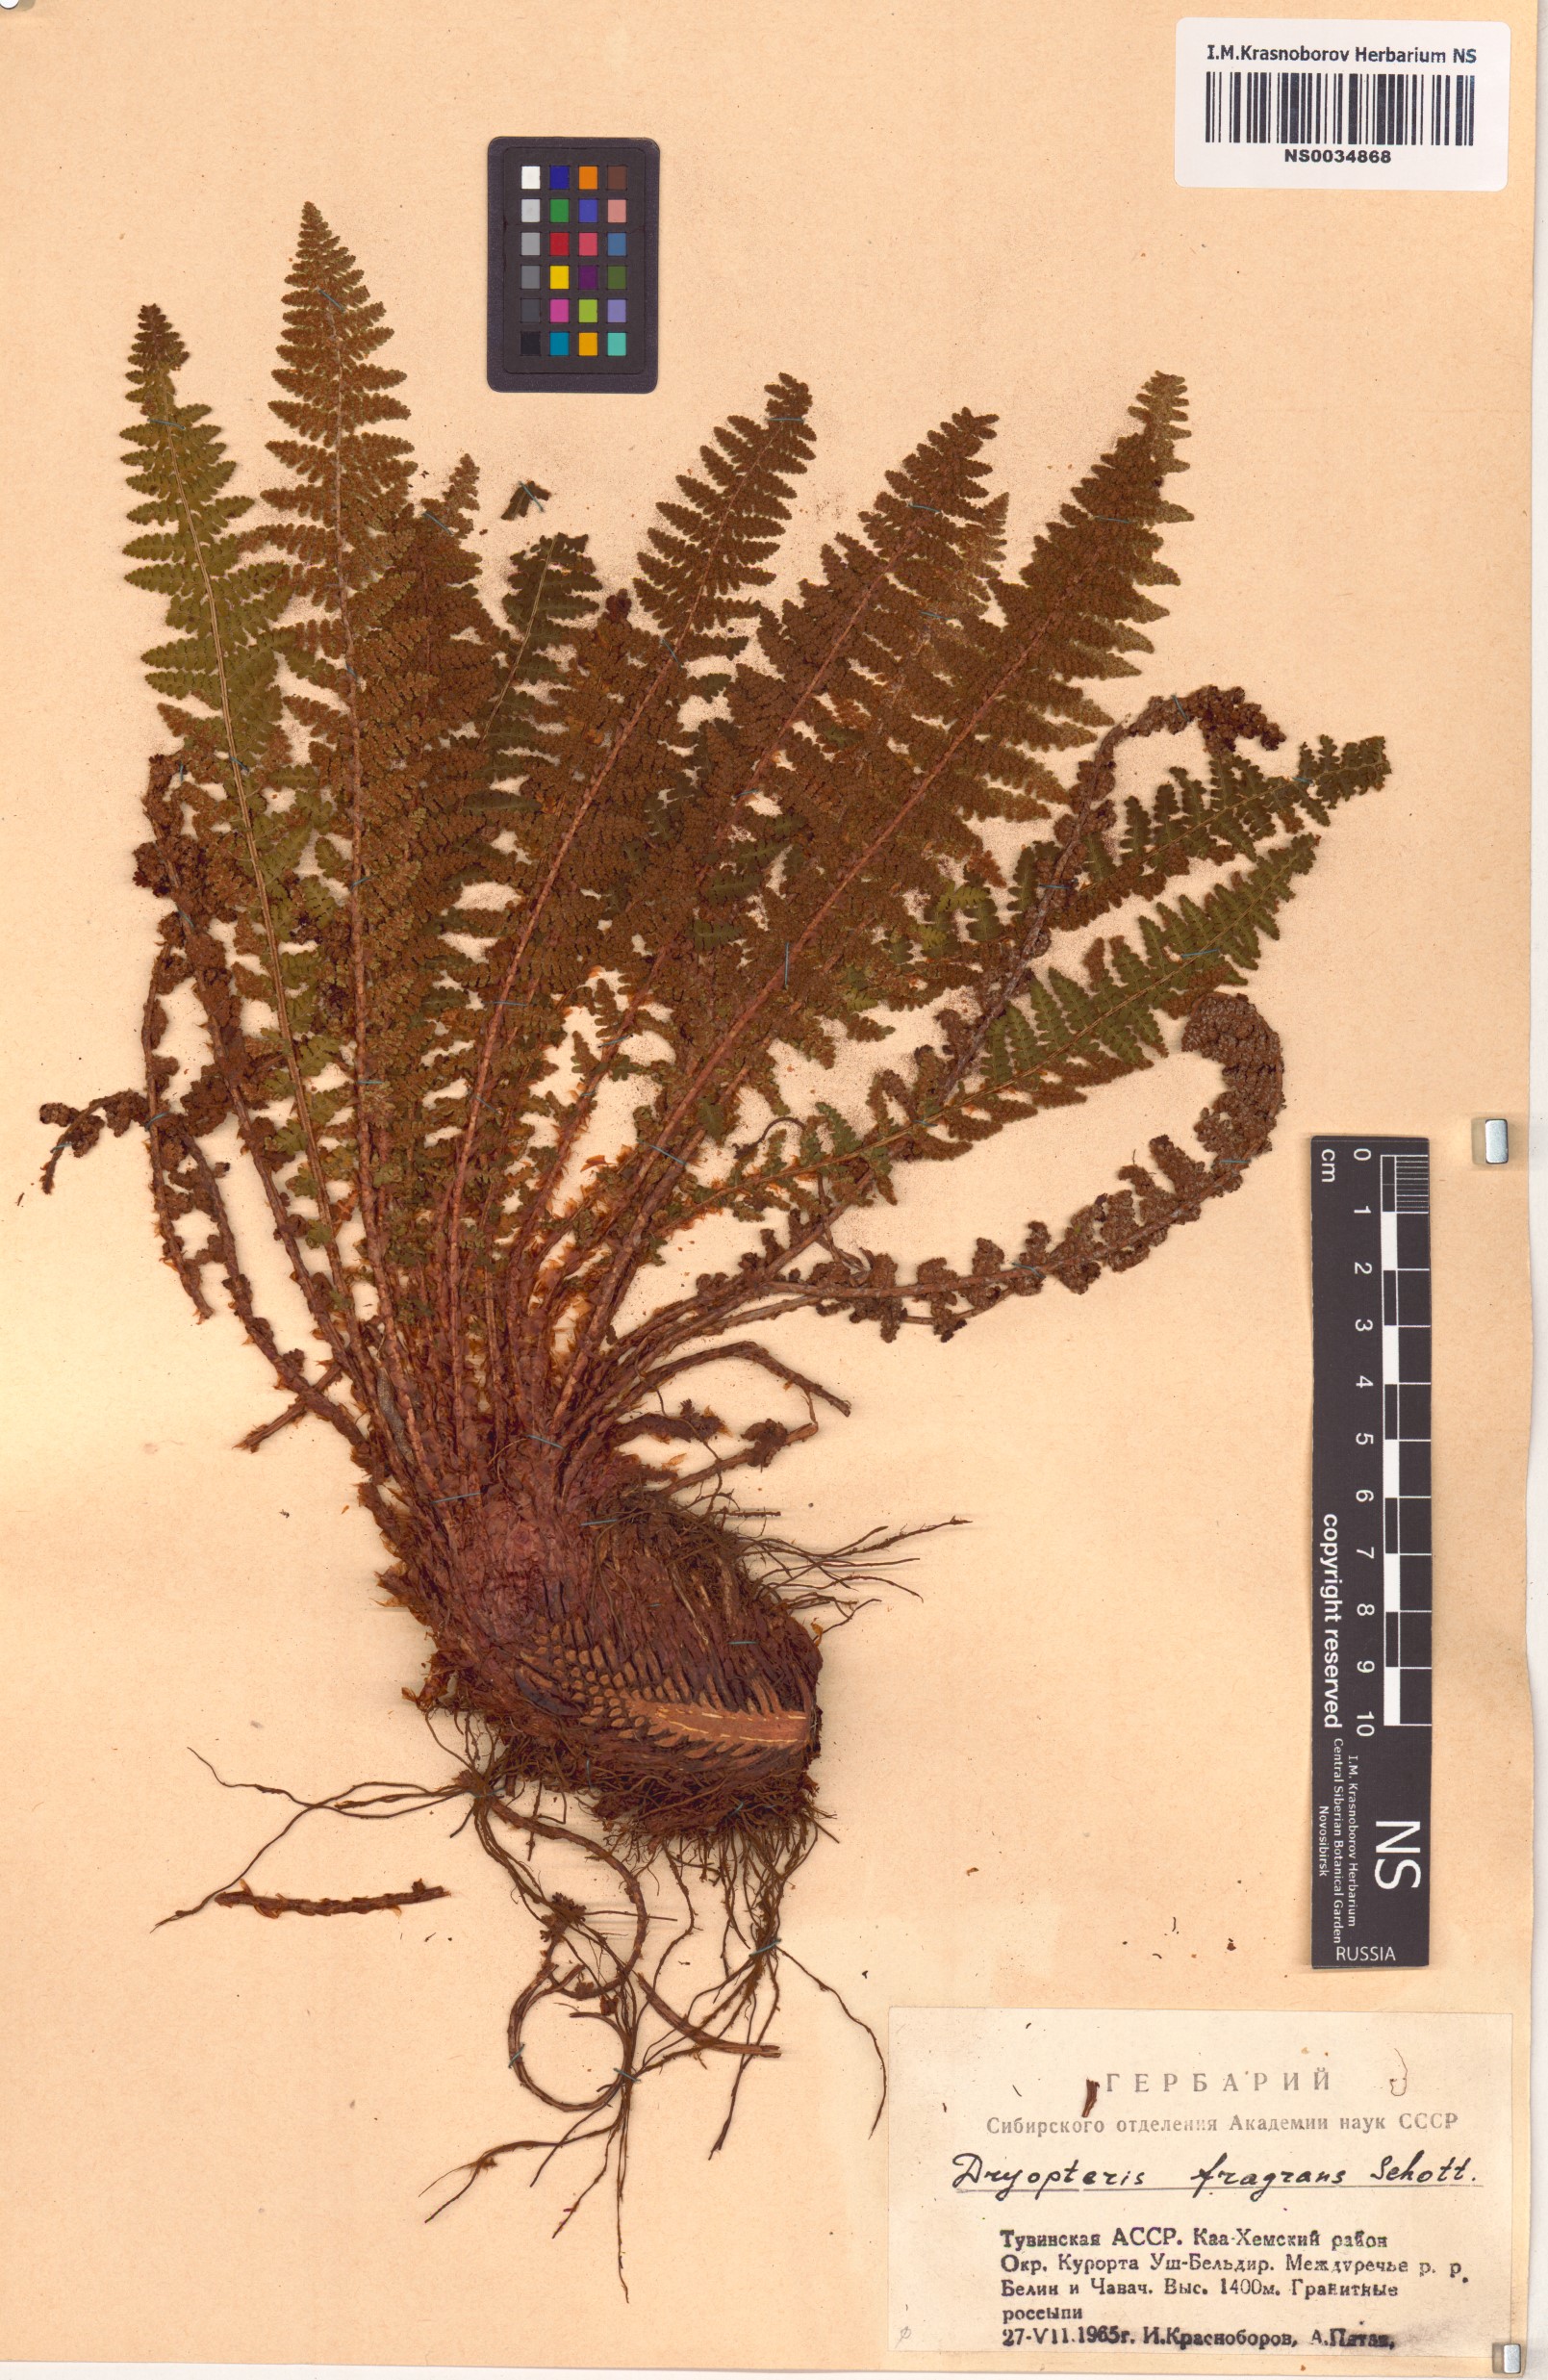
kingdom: Plantae
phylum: Tracheophyta
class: Polypodiopsida
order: Polypodiales
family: Dryopteridaceae
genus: Dryopteris
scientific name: Dryopteris fragrans
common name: Fragrant wood fern
